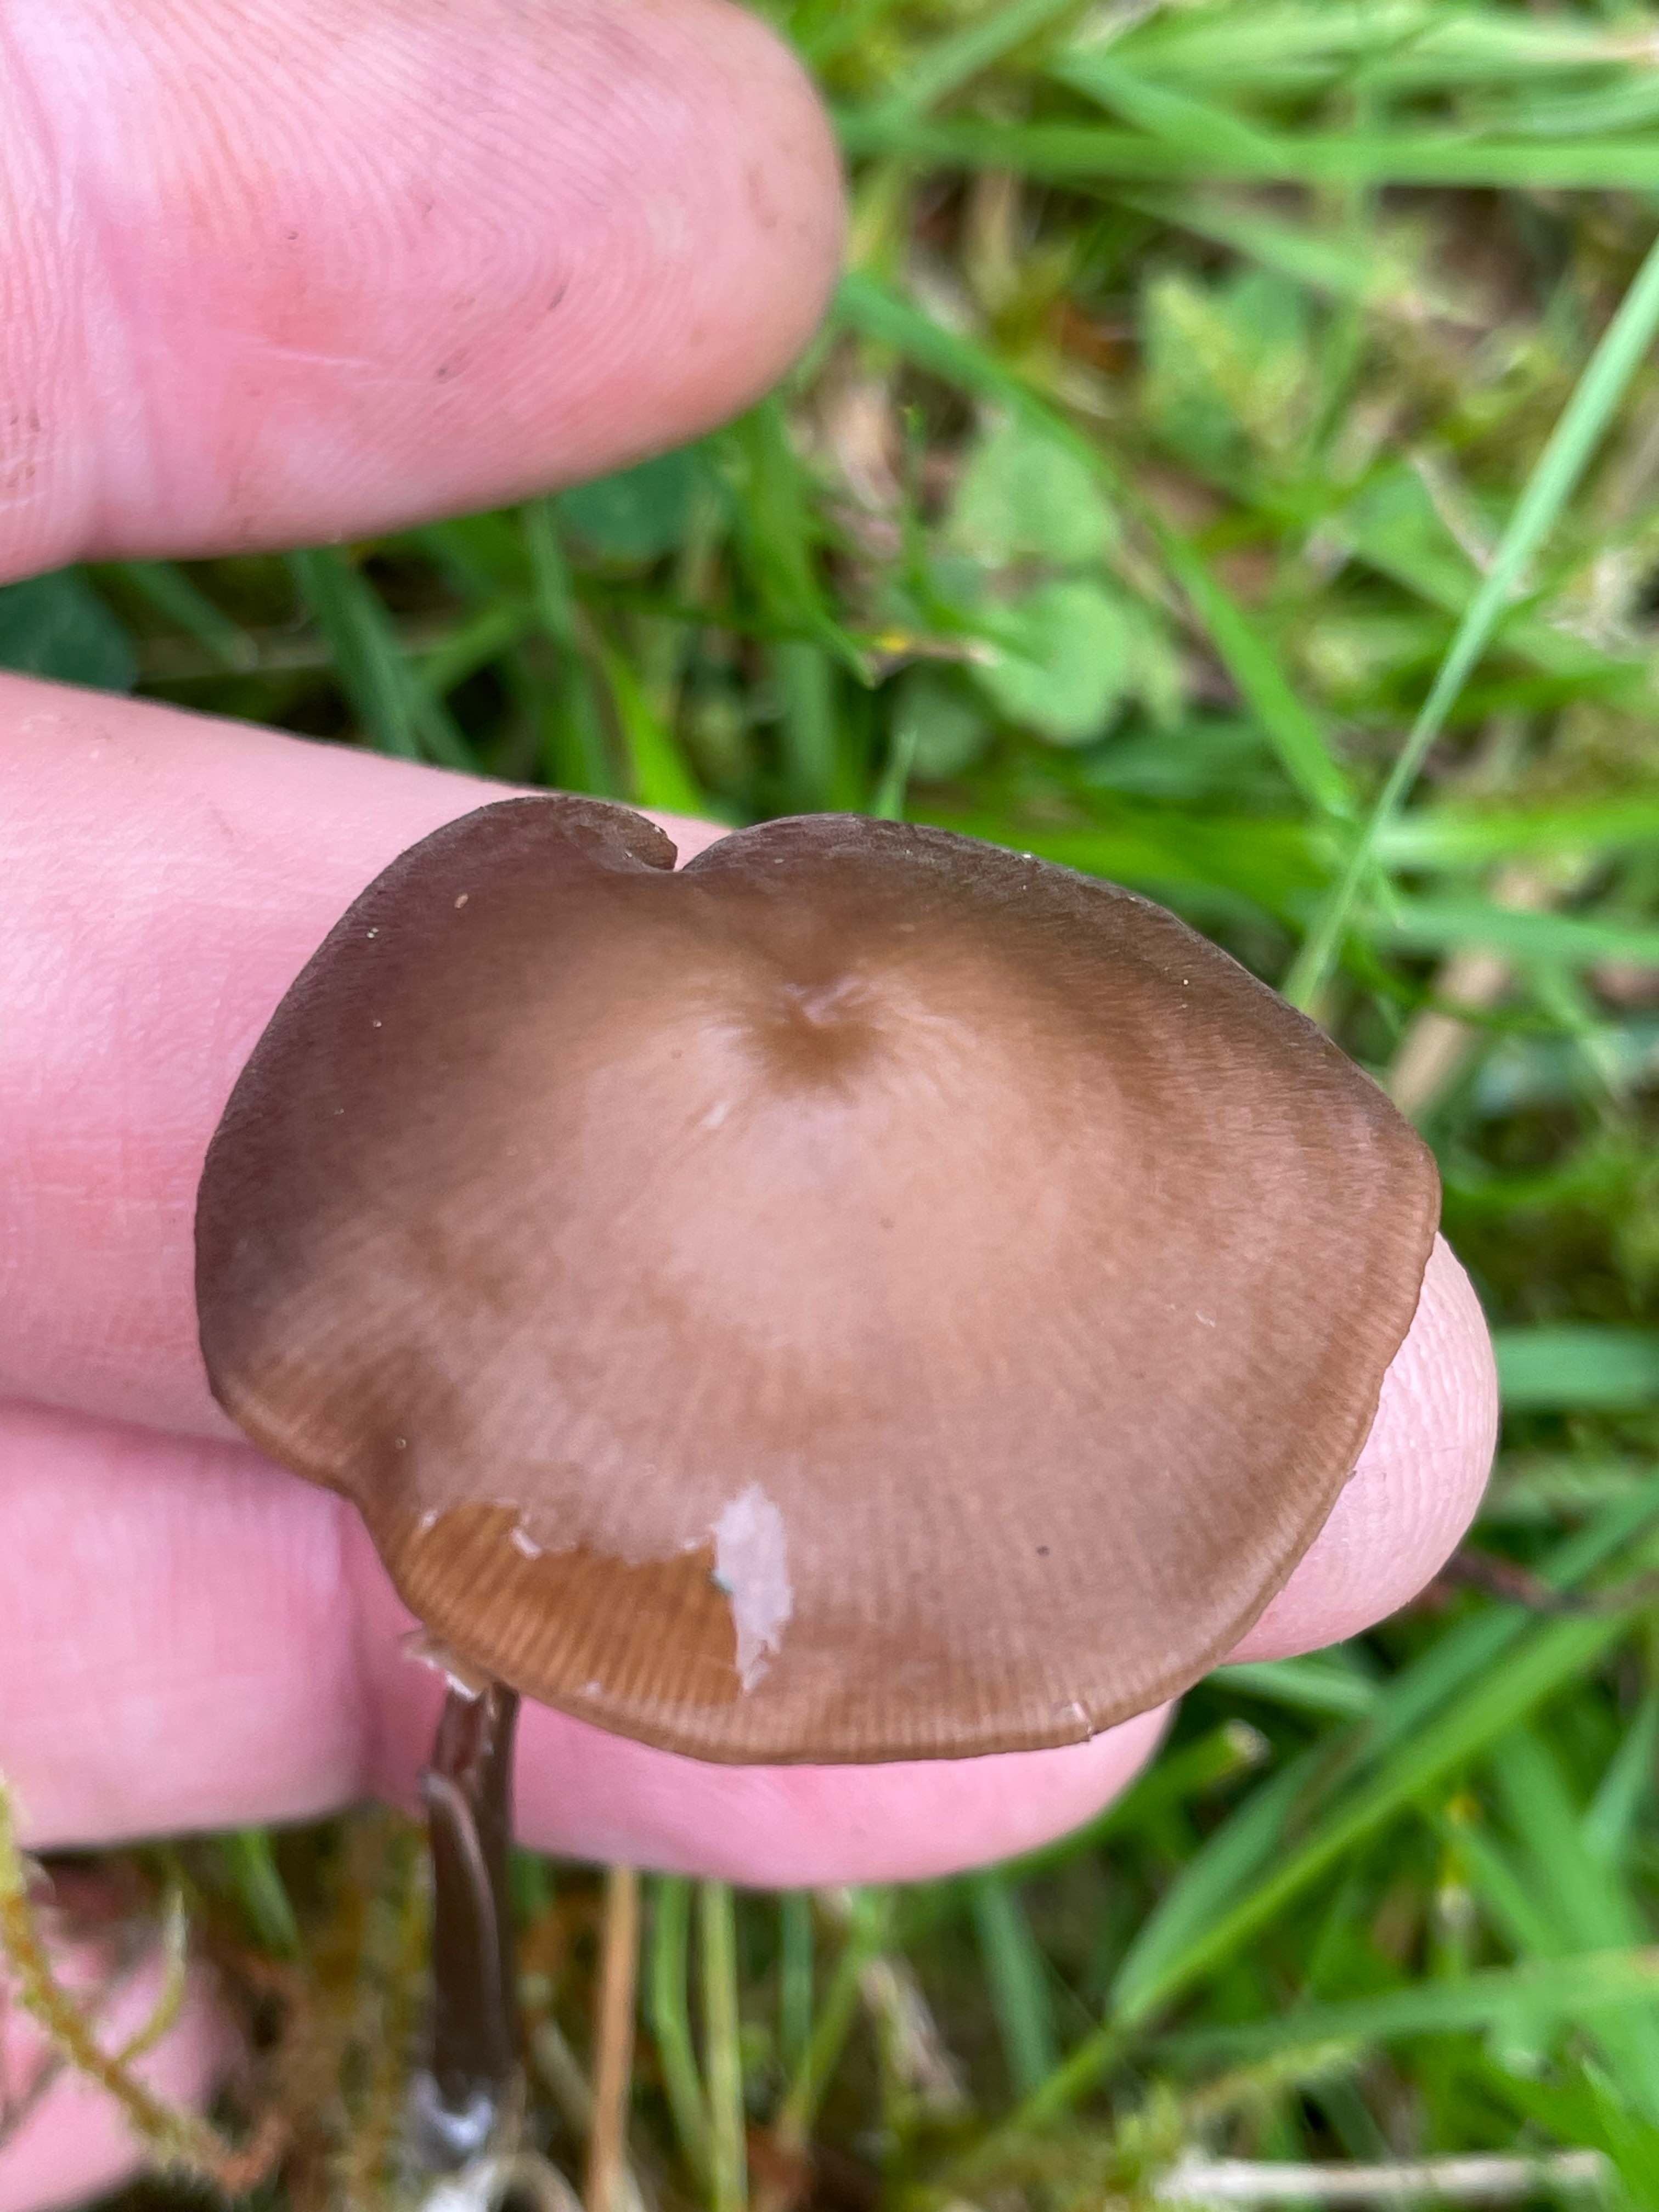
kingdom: Fungi
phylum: Basidiomycota
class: Agaricomycetes
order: Agaricales
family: Entolomataceae
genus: Entoloma
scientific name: Entoloma
